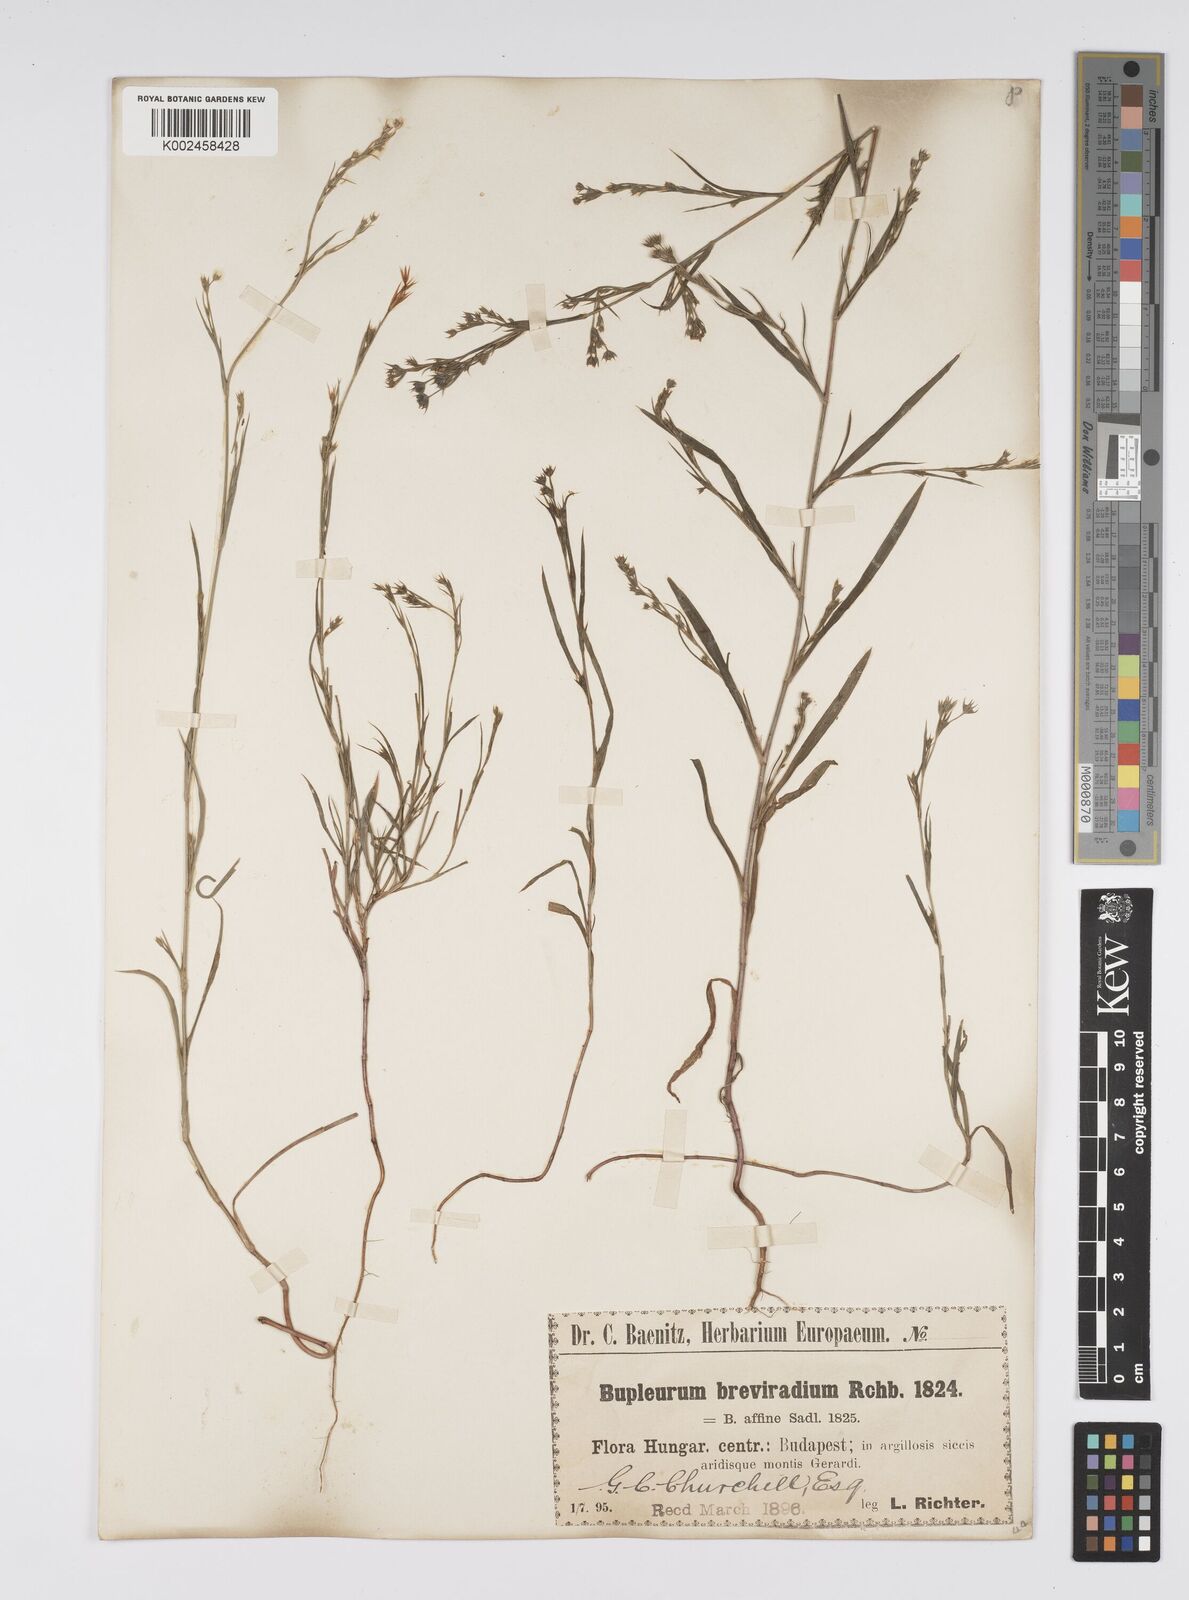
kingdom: Plantae
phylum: Tracheophyta
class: Magnoliopsida
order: Apiales
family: Apiaceae
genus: Bupleurum
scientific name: Bupleurum affine
